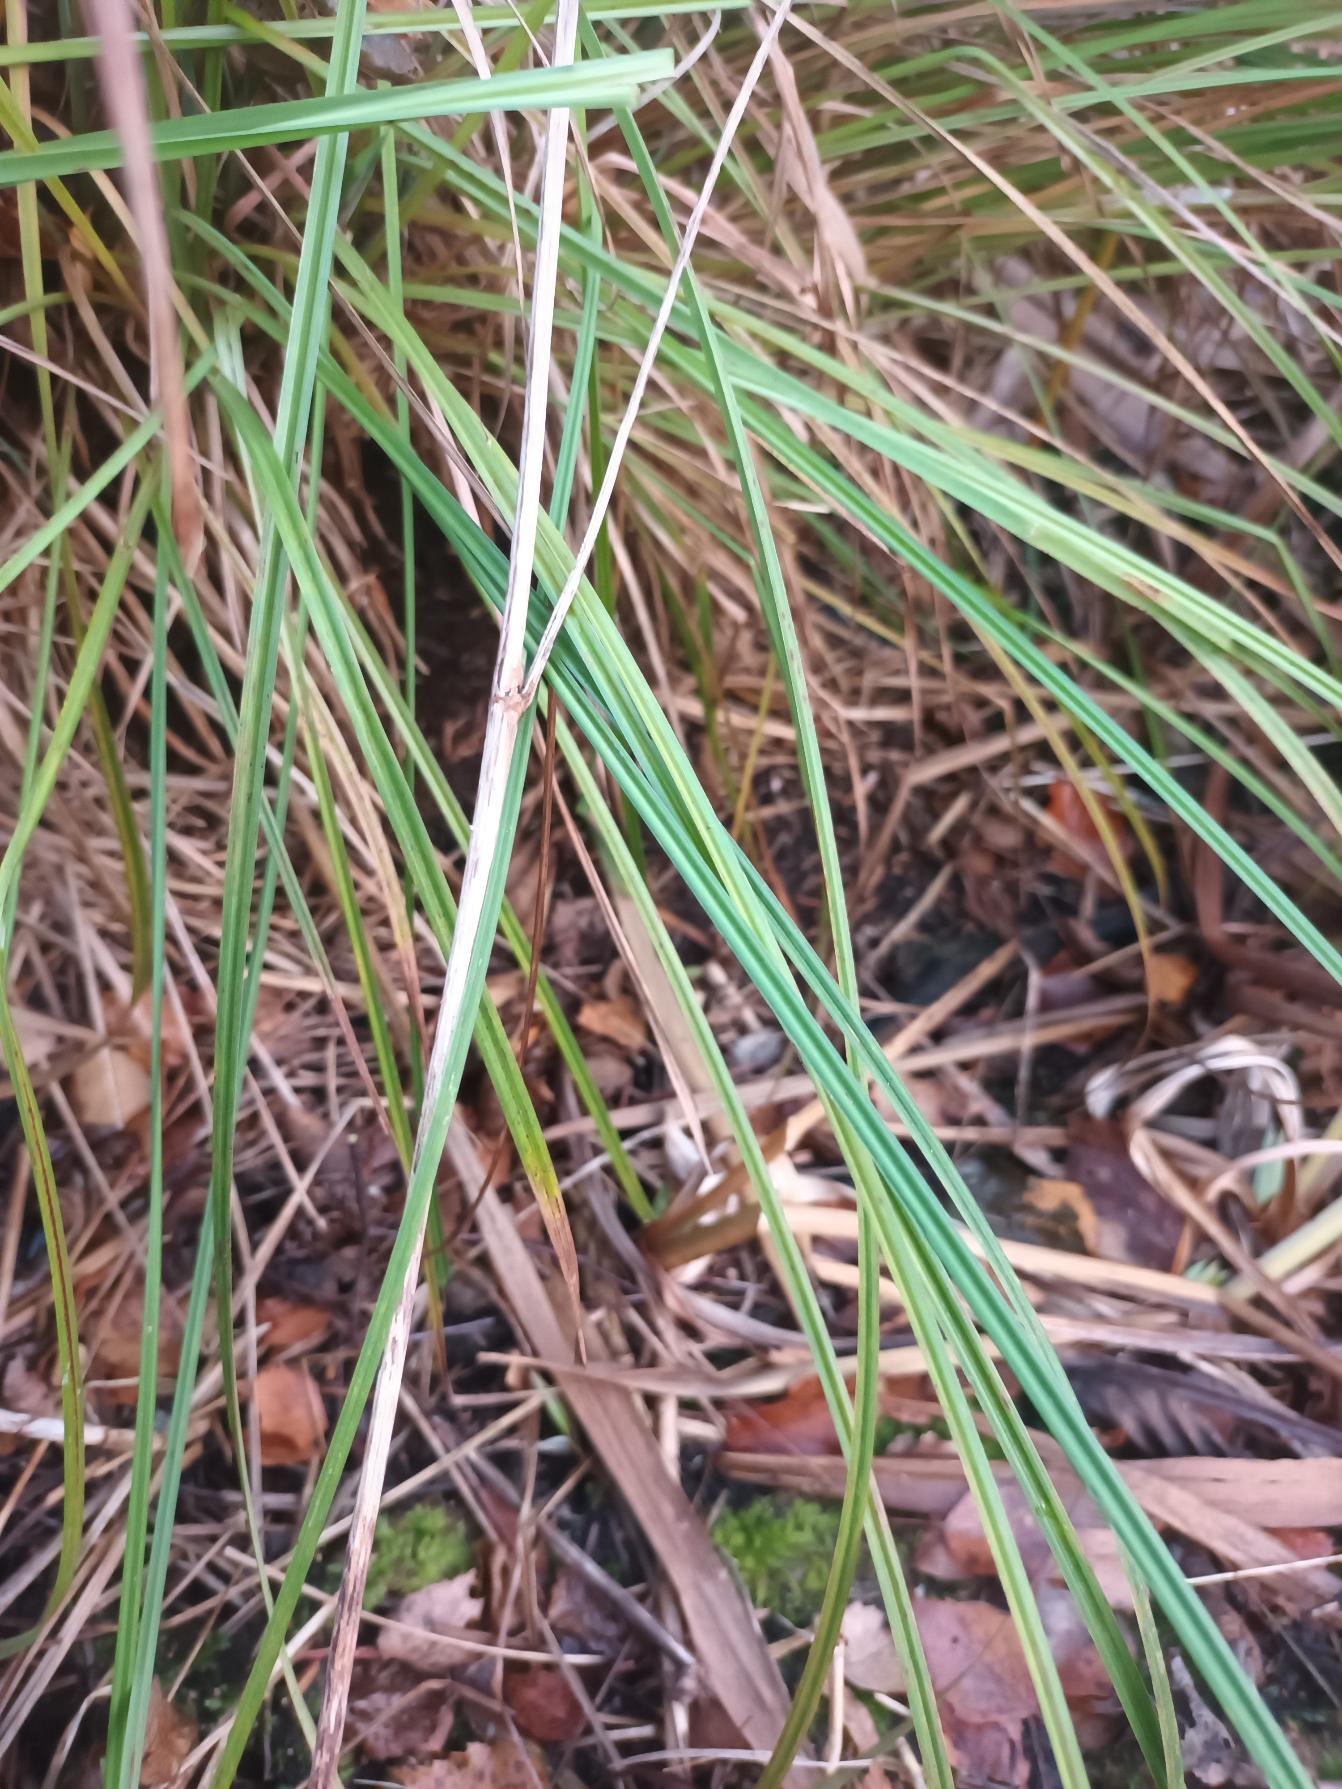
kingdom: Plantae
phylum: Tracheophyta
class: Liliopsida
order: Poales
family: Cyperaceae
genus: Carex
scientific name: Carex elata
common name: Stiv star
